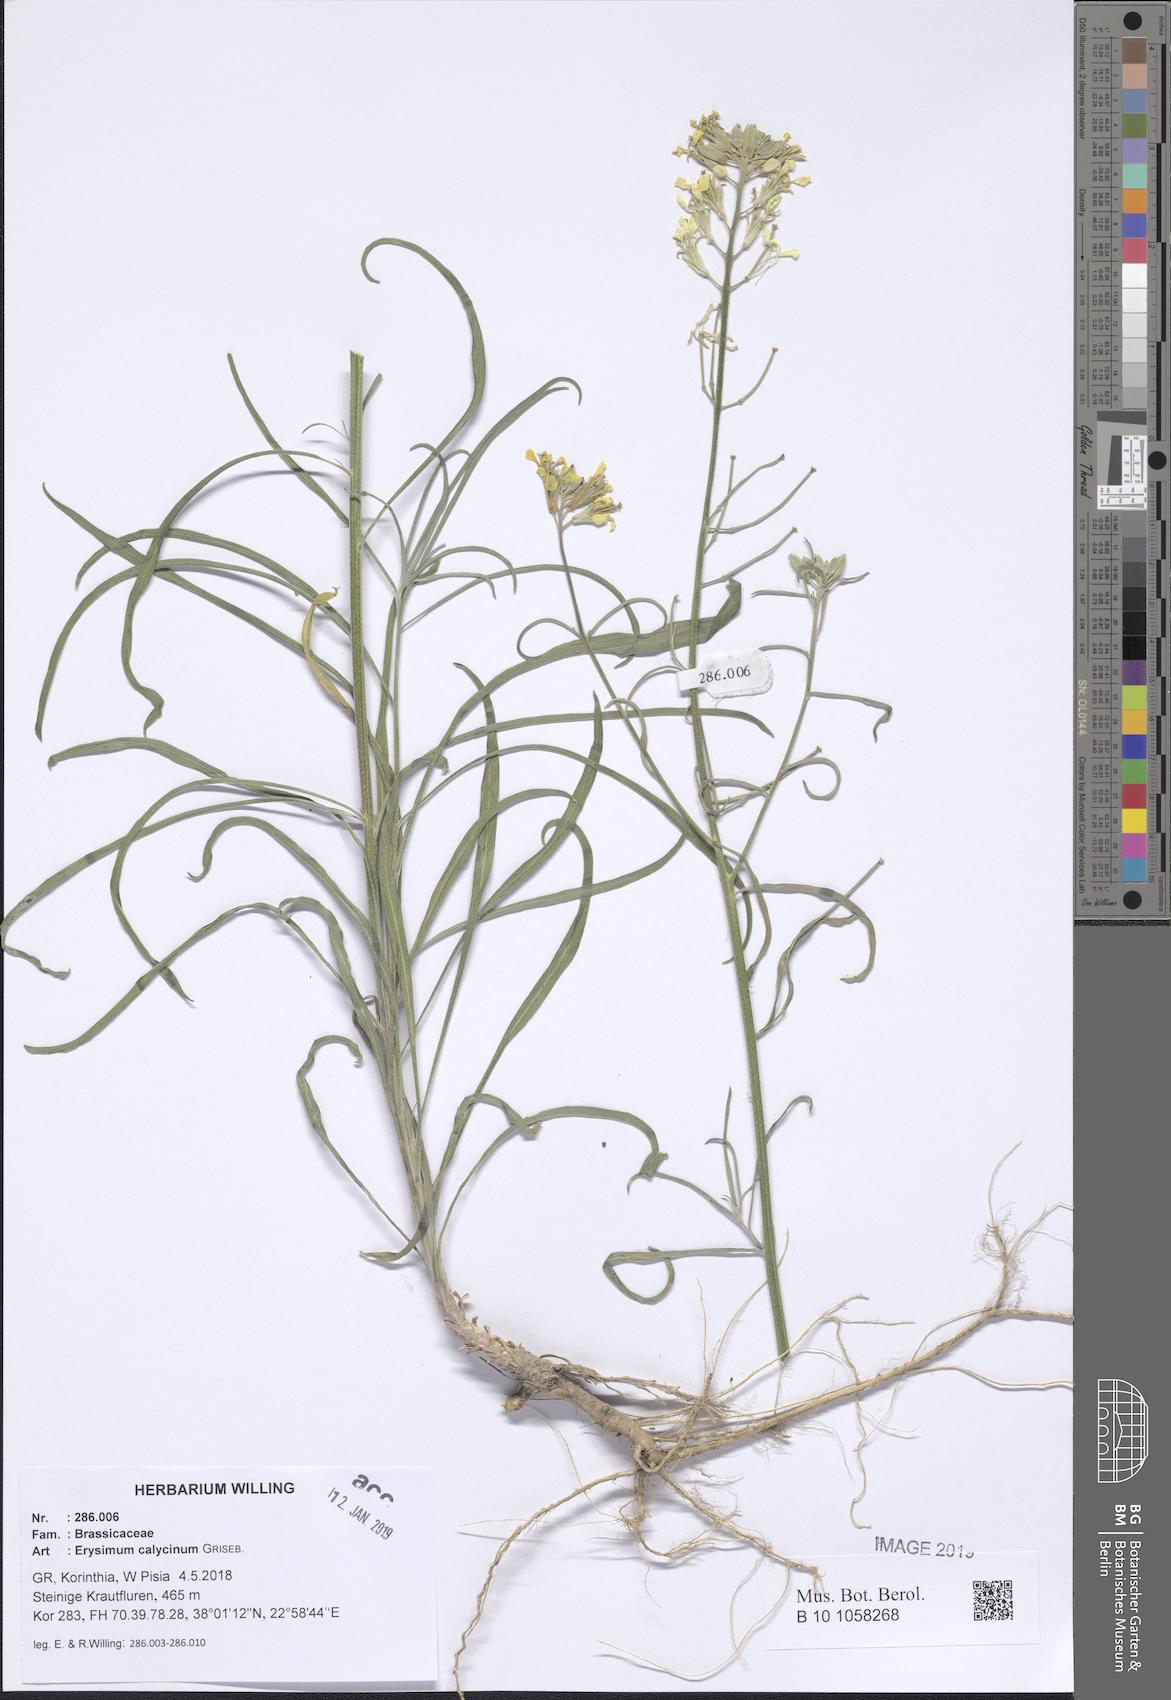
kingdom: Plantae
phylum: Tracheophyta
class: Magnoliopsida
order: Asterales
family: Asteraceae
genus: Anthemis
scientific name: Anthemis arvensis
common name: Corn chamomile
